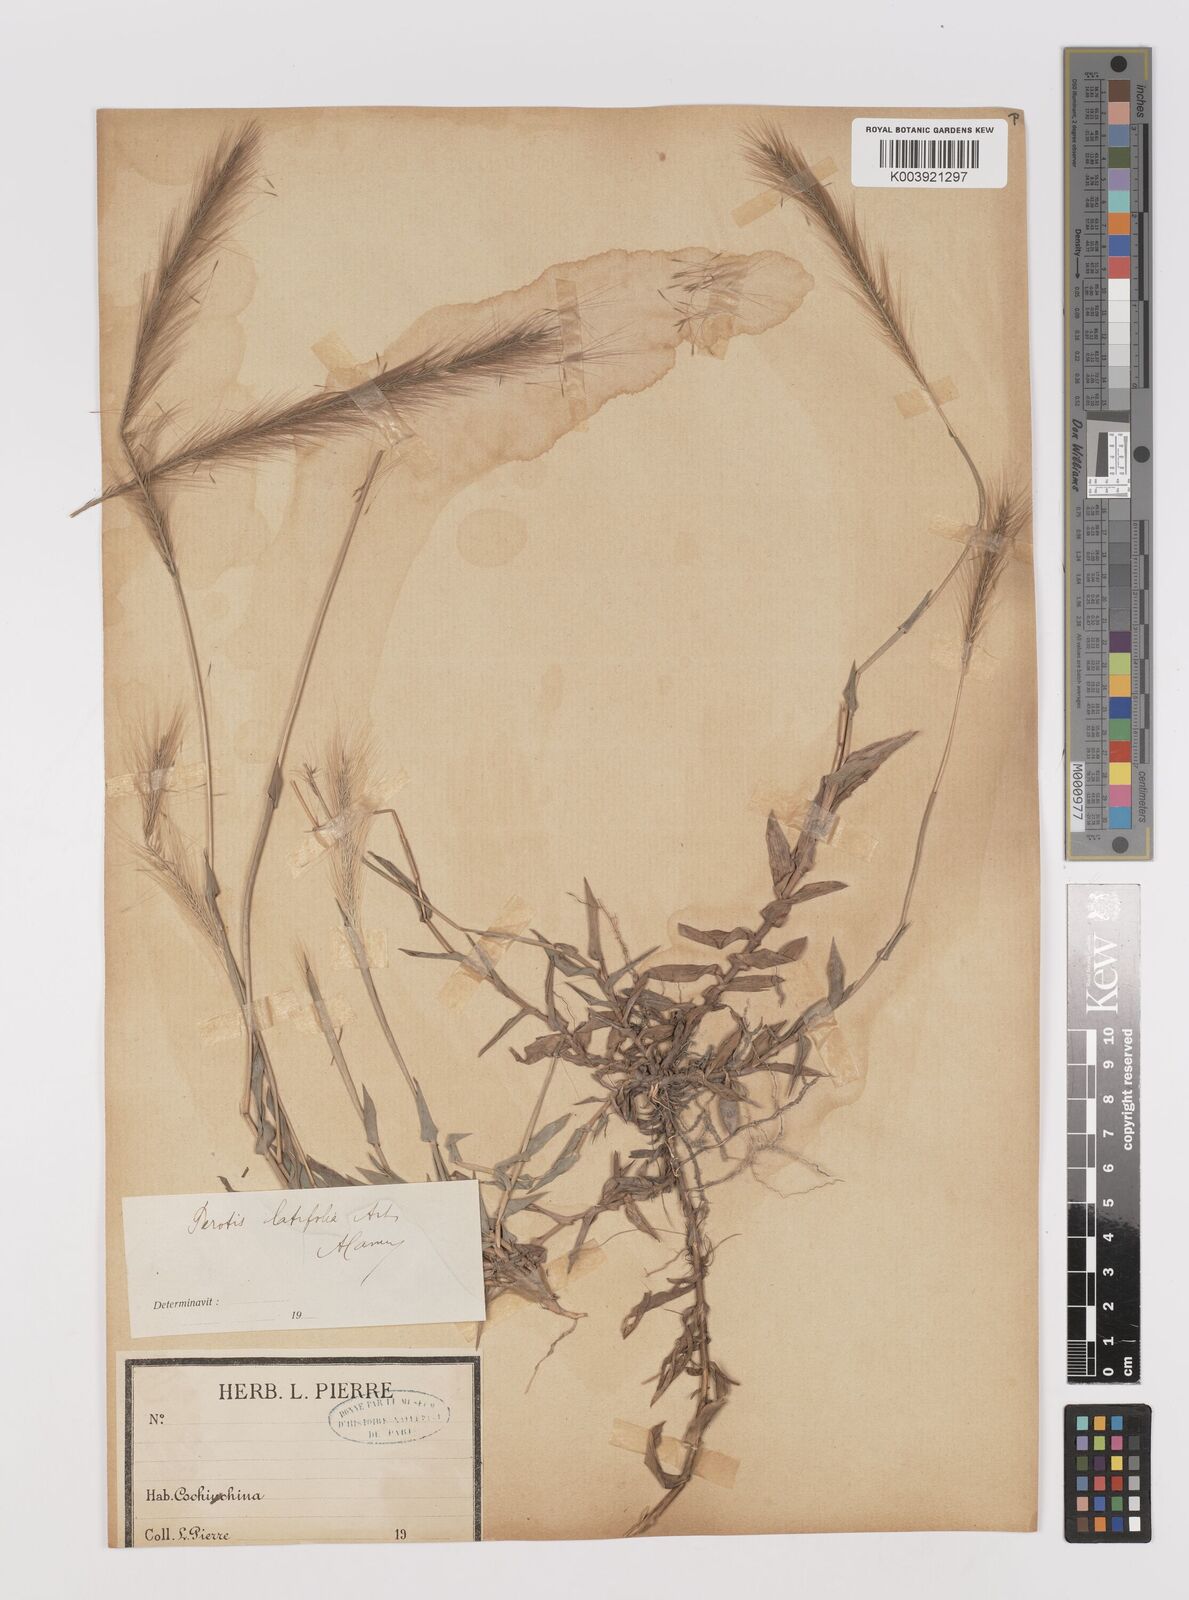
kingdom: Plantae
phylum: Tracheophyta
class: Liliopsida
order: Poales
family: Poaceae
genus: Perotis
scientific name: Perotis indica
